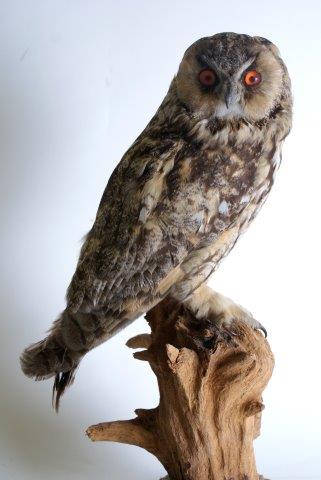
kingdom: Animalia
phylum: Chordata
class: Aves
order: Strigiformes
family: Strigidae
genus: Asio
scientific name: Asio otus
